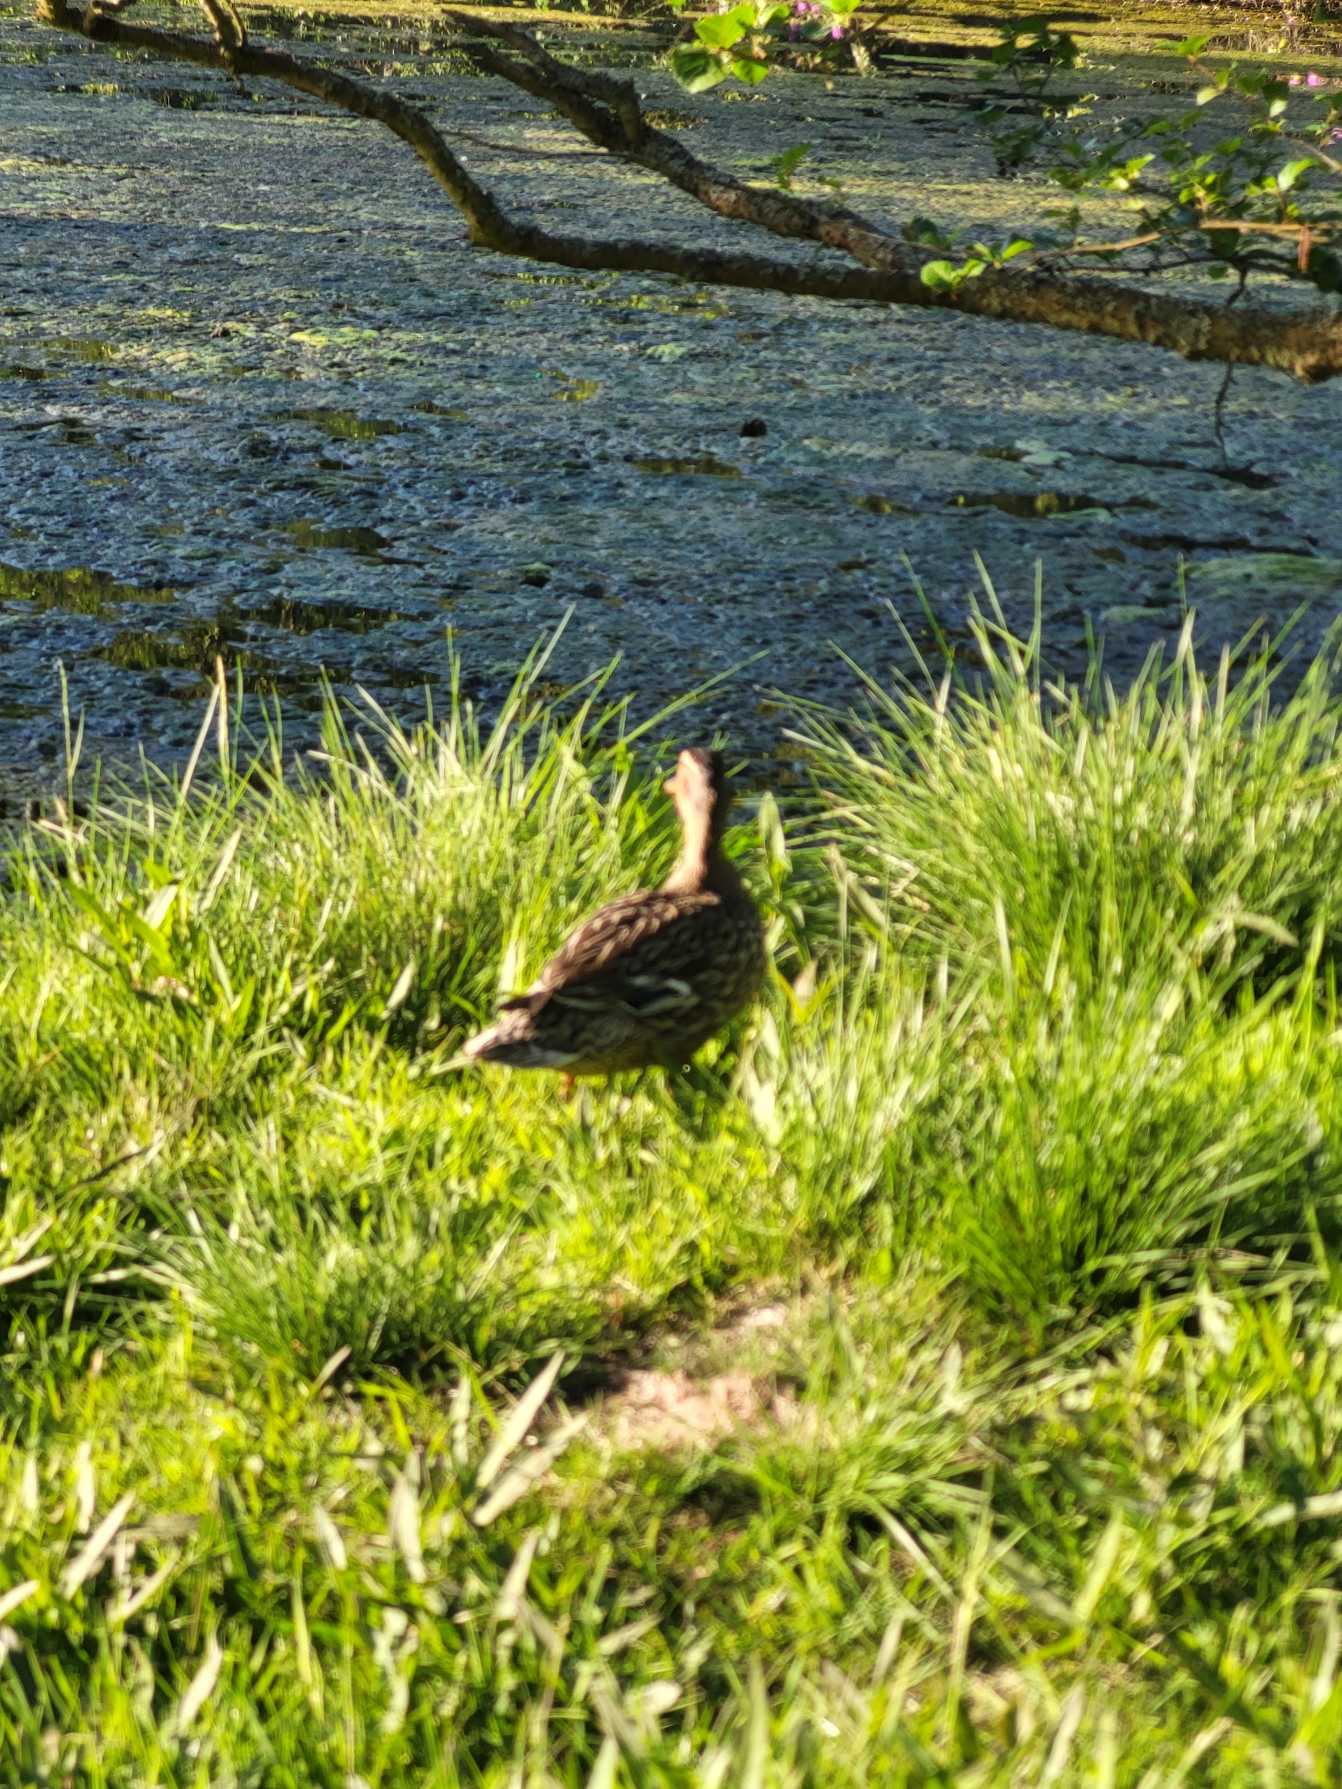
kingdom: Animalia
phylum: Chordata
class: Aves
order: Anseriformes
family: Anatidae
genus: Anas
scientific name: Anas platyrhynchos
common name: Gråand
